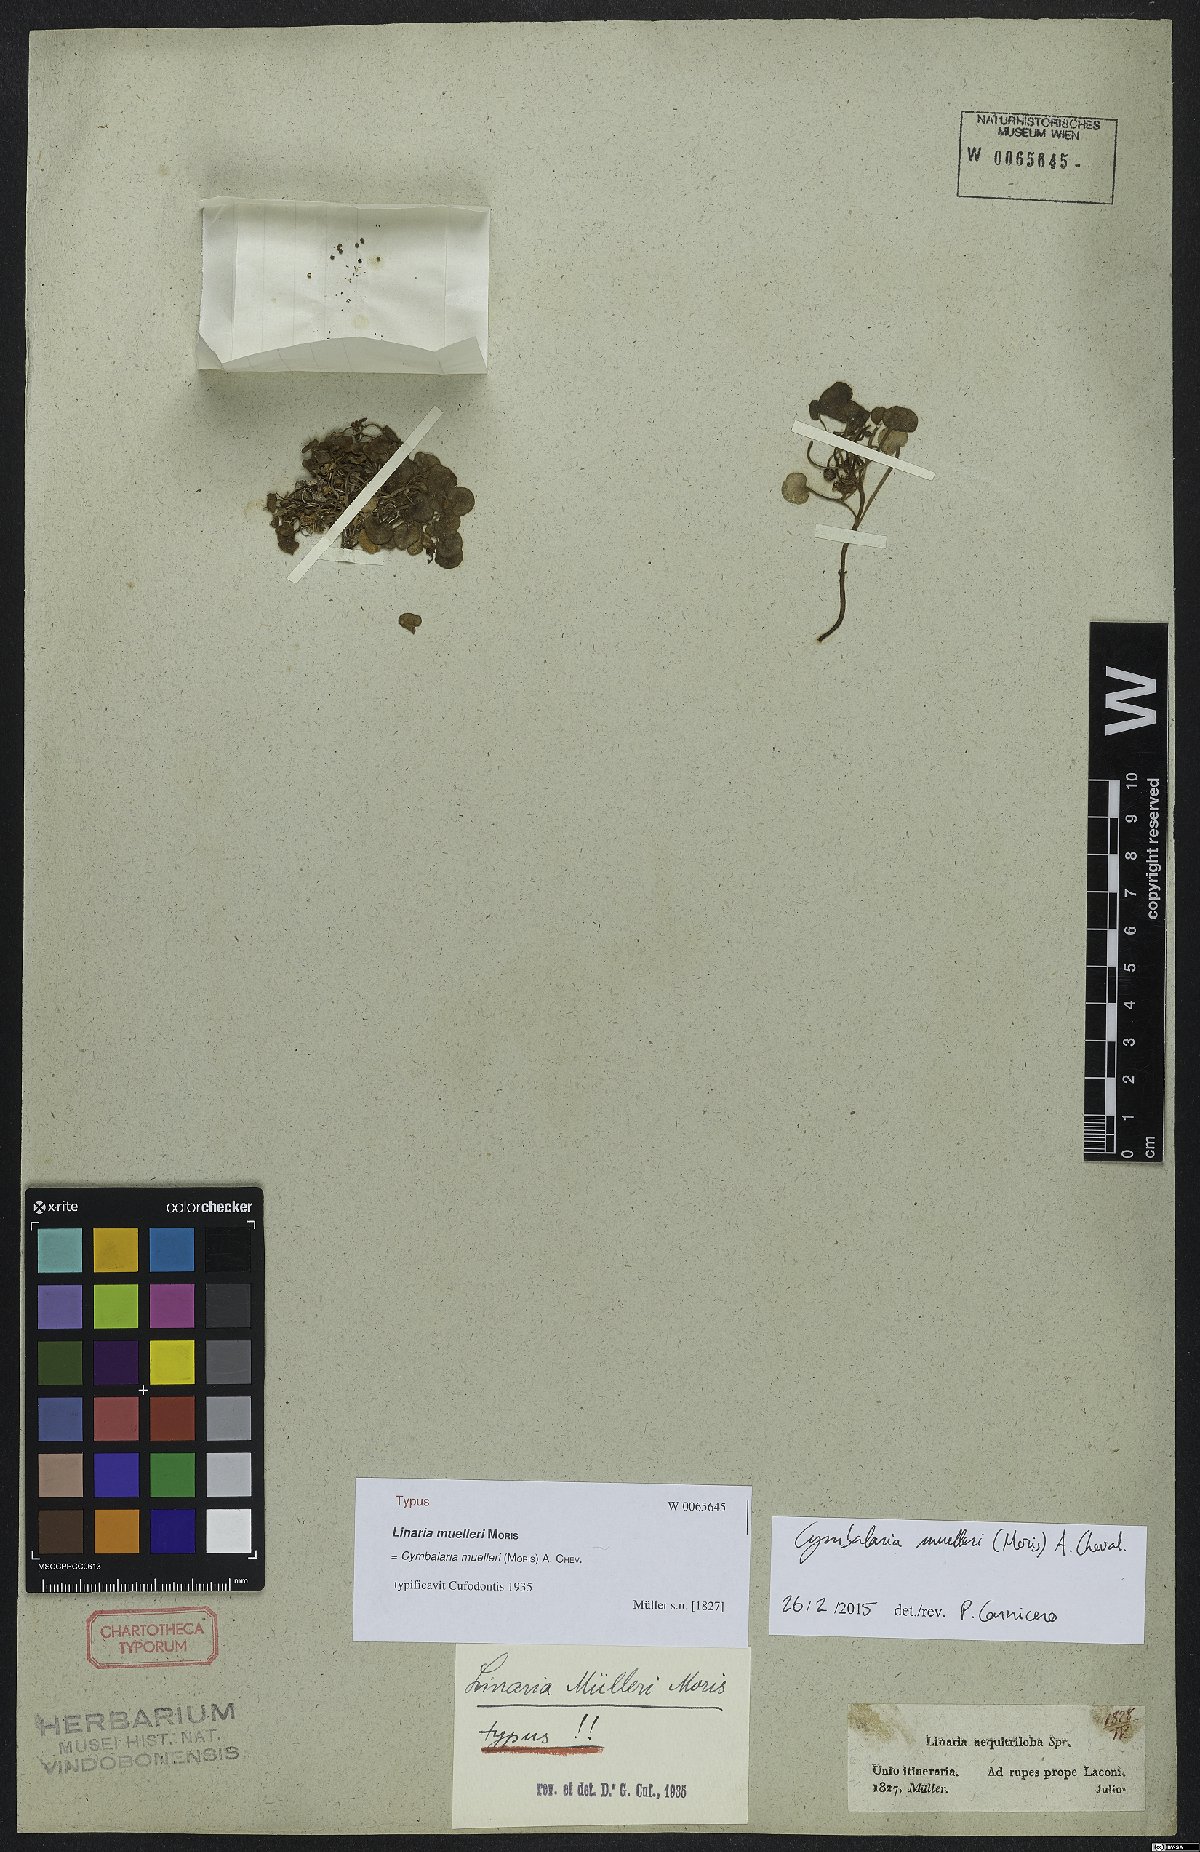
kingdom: Plantae
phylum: Tracheophyta
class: Magnoliopsida
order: Lamiales
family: Plantaginaceae
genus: Cymbalaria
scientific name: Cymbalaria muelleri
